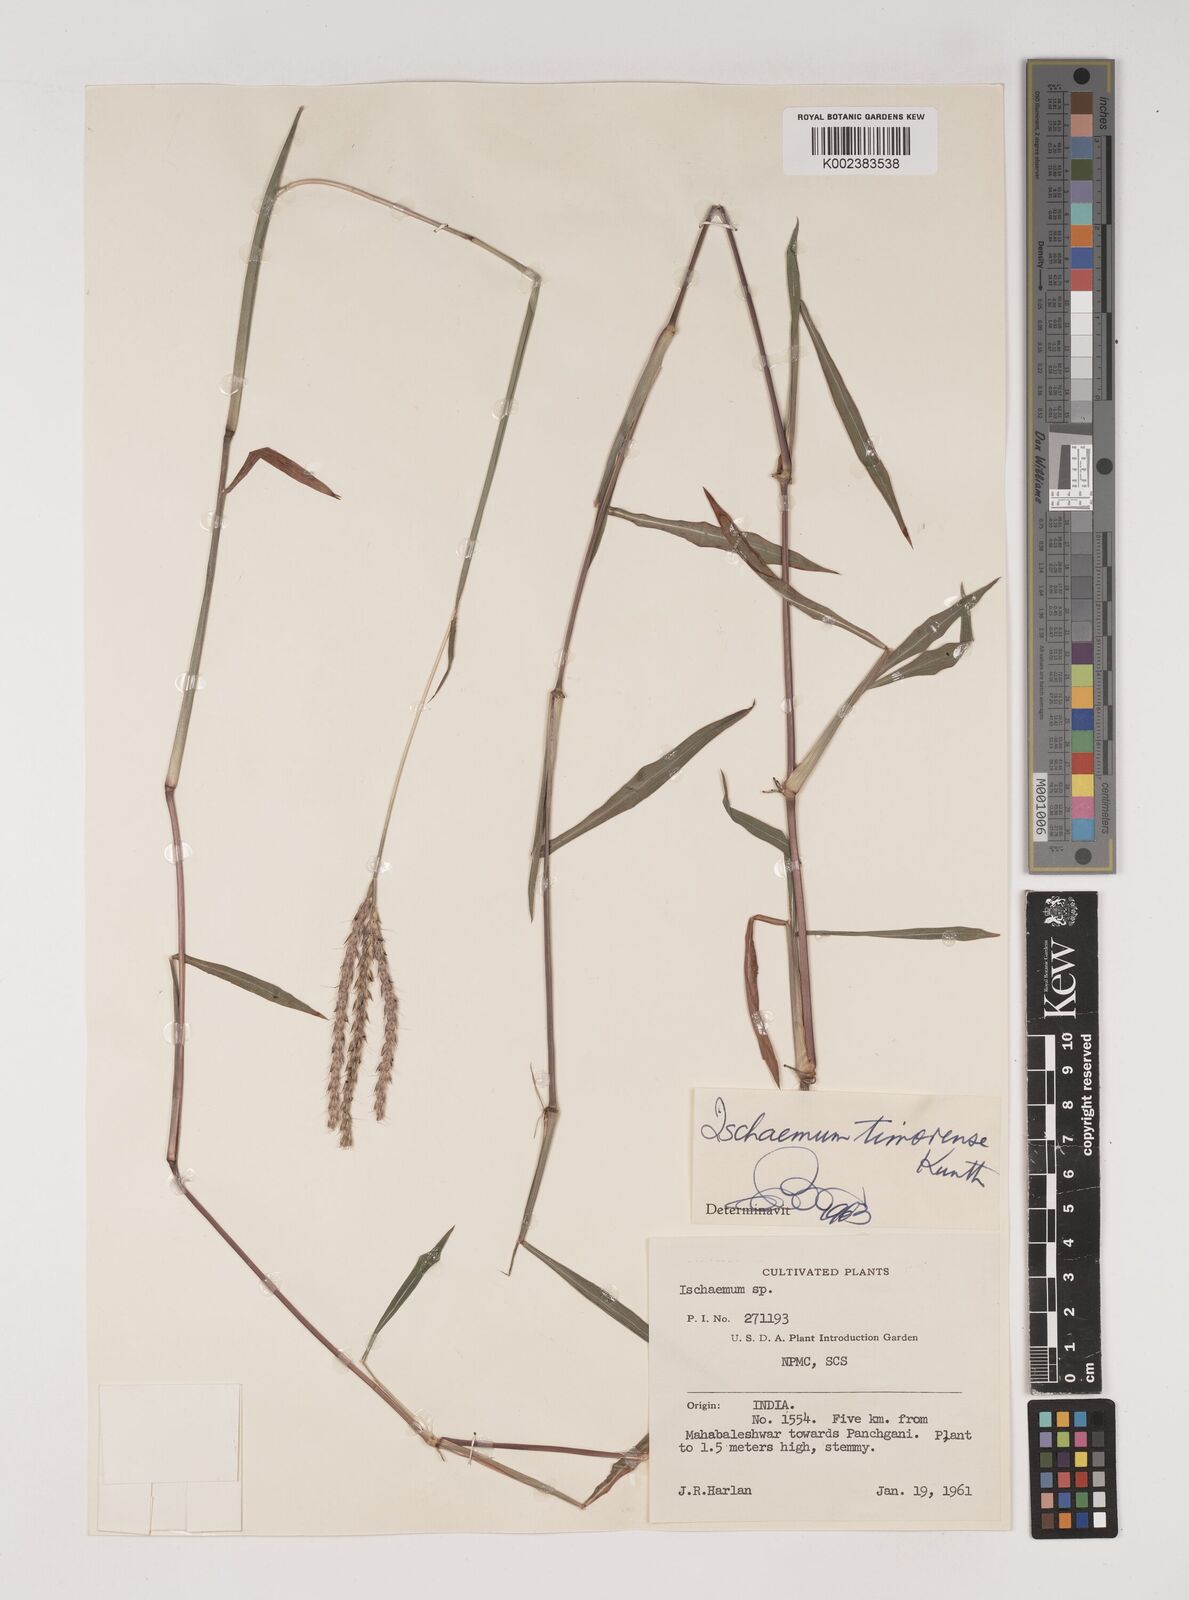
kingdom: Plantae
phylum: Tracheophyta
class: Liliopsida
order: Poales
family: Poaceae
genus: Ischaemum
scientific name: Ischaemum timorense
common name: Stalkleaf murainagrass
